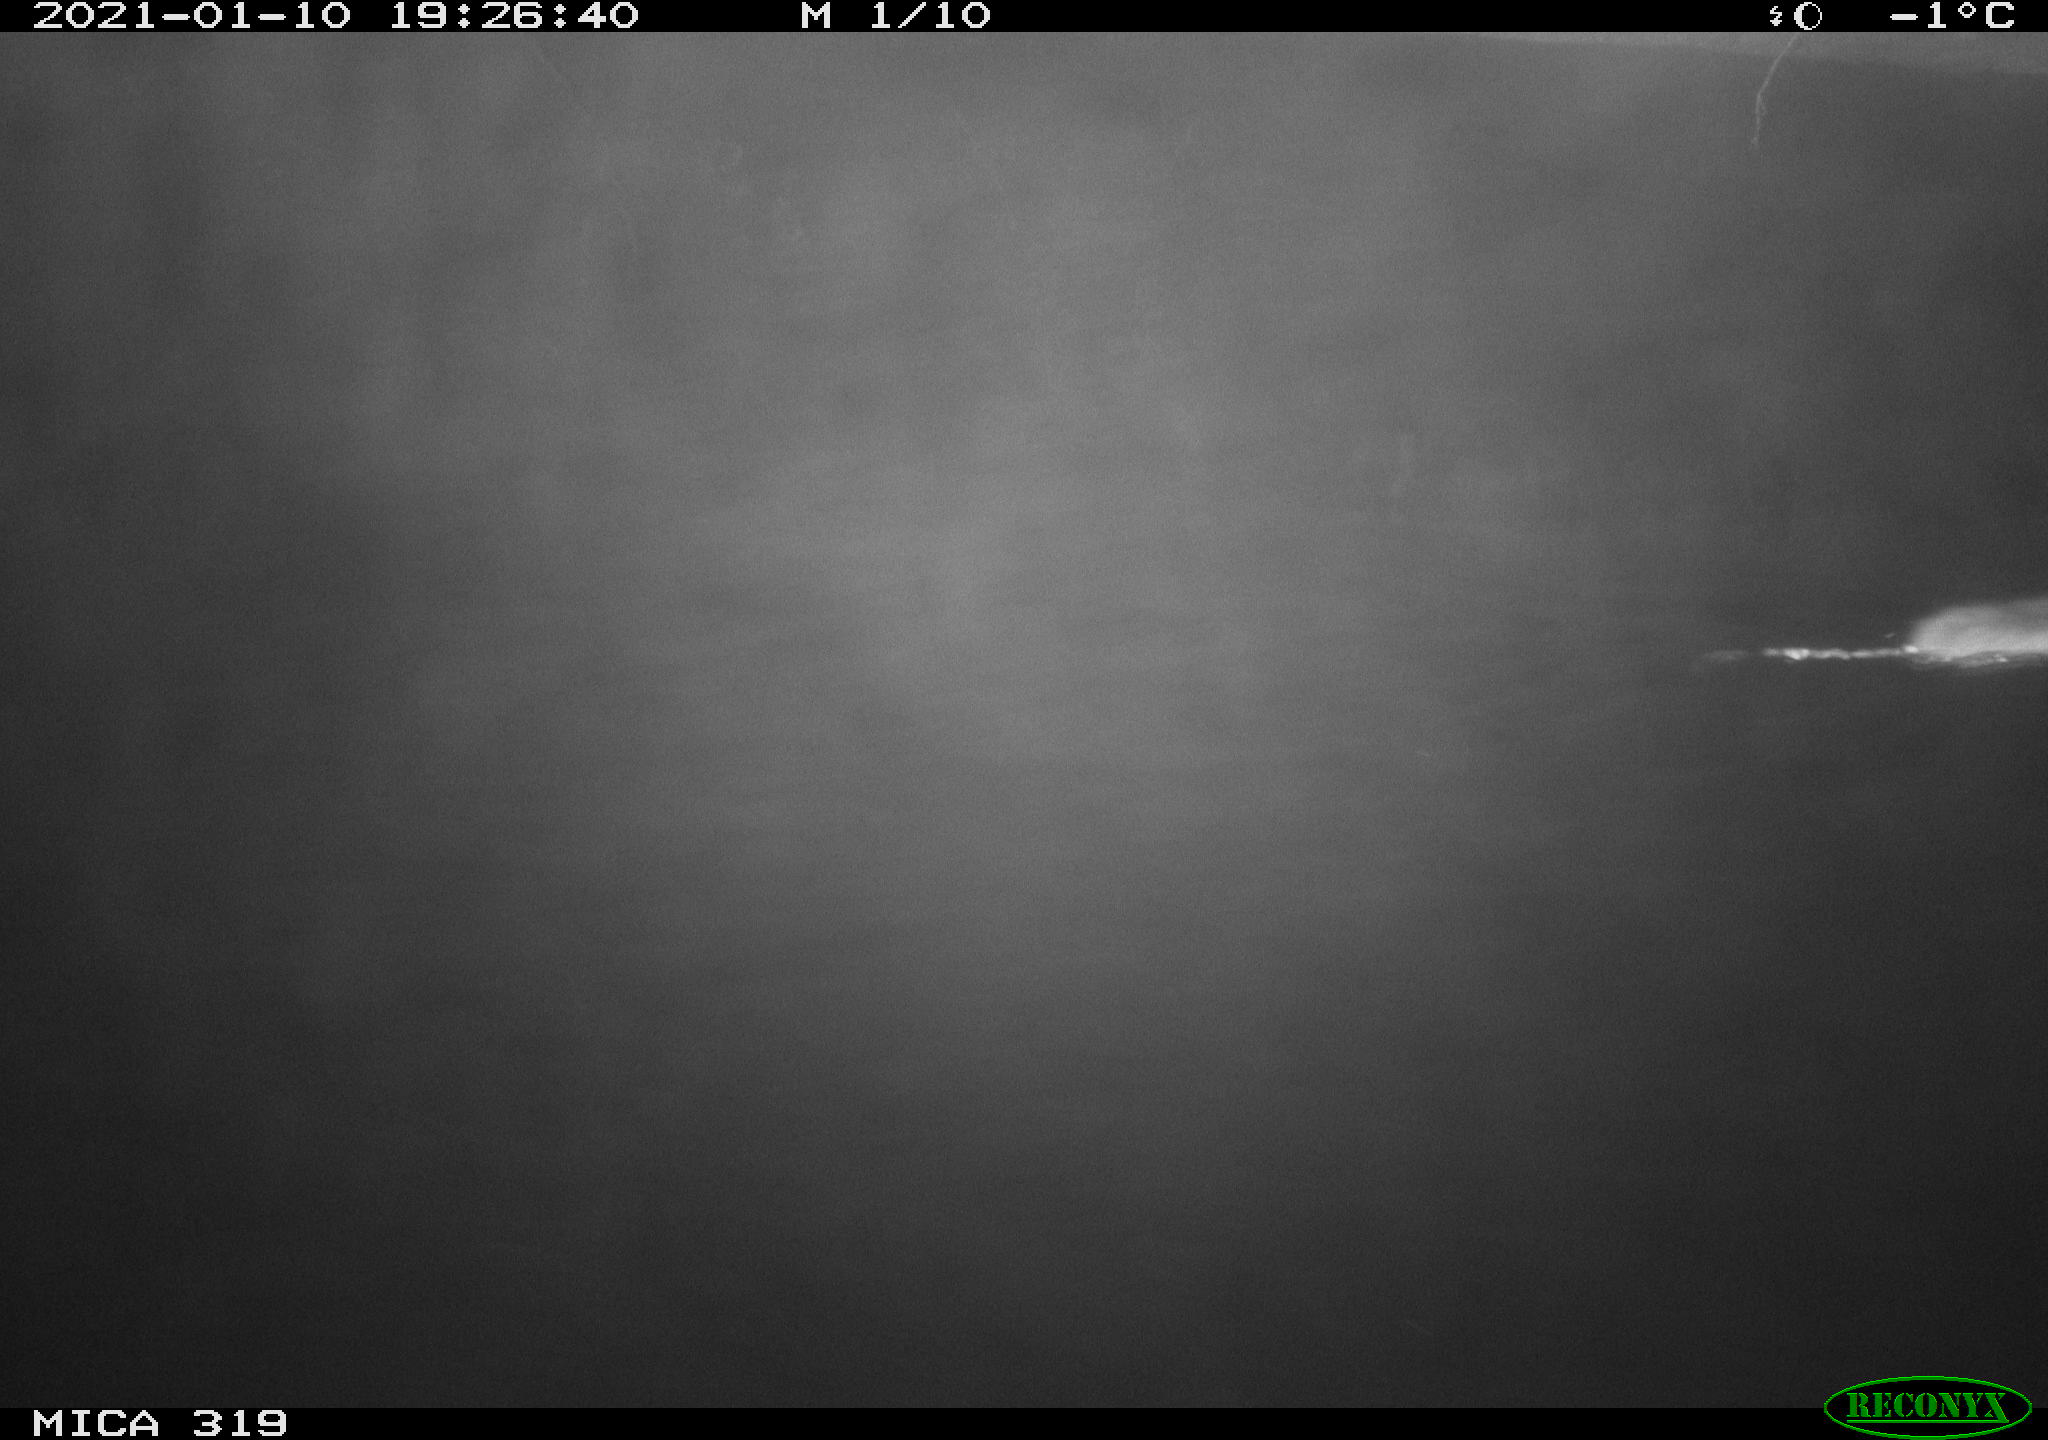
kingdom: Animalia
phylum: Chordata
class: Mammalia
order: Rodentia
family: Muridae
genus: Rattus
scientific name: Rattus norvegicus
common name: Brown rat
